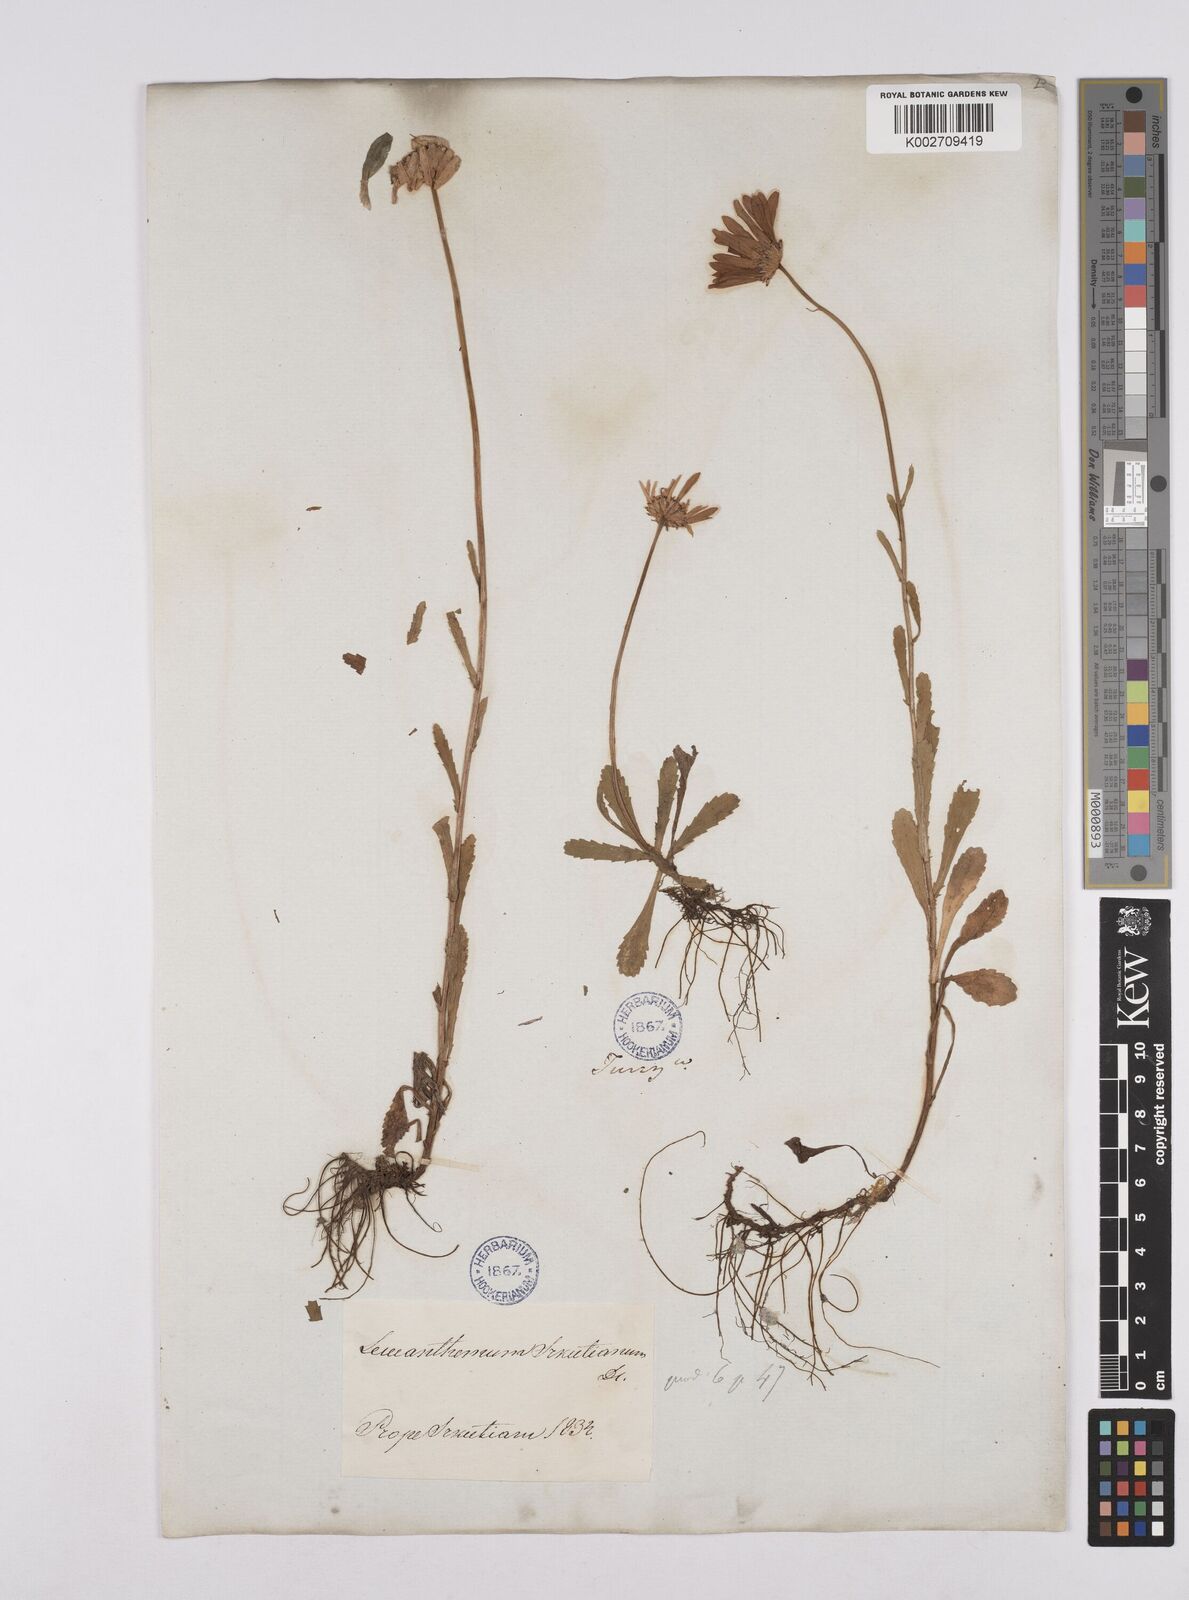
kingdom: Plantae
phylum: Tracheophyta
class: Magnoliopsida
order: Asterales
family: Asteraceae
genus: Leucanthemum
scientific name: Leucanthemum vulgare
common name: Oxeye daisy
